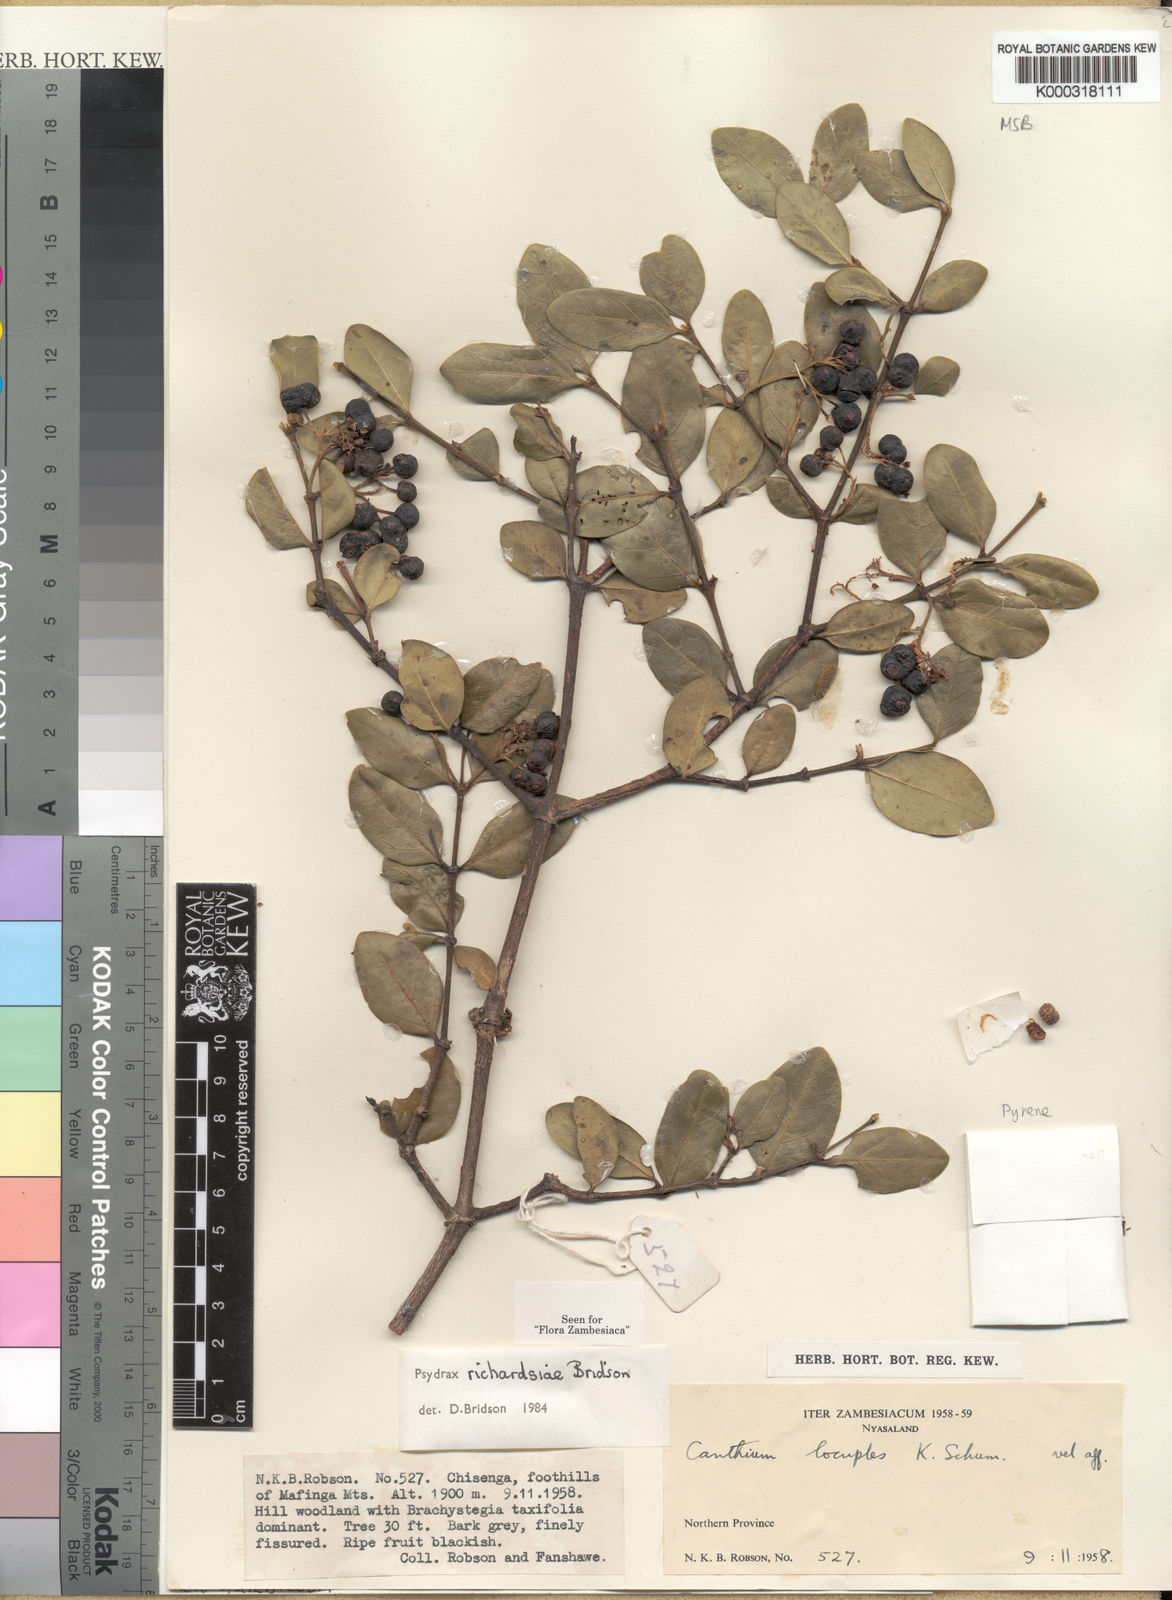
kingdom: Plantae
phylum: Tracheophyta
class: Magnoliopsida
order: Gentianales
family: Rubiaceae
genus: Psydrax
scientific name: Psydrax richardsiae
